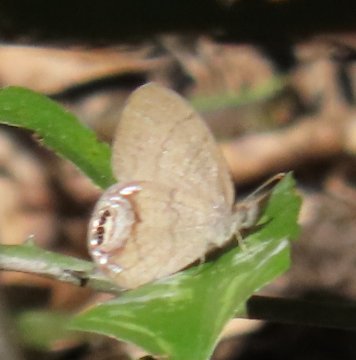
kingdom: Animalia
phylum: Arthropoda
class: Insecta
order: Lepidoptera
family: Nymphalidae
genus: Euptychia
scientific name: Euptychia cornelius
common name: Gemmed Satyr
